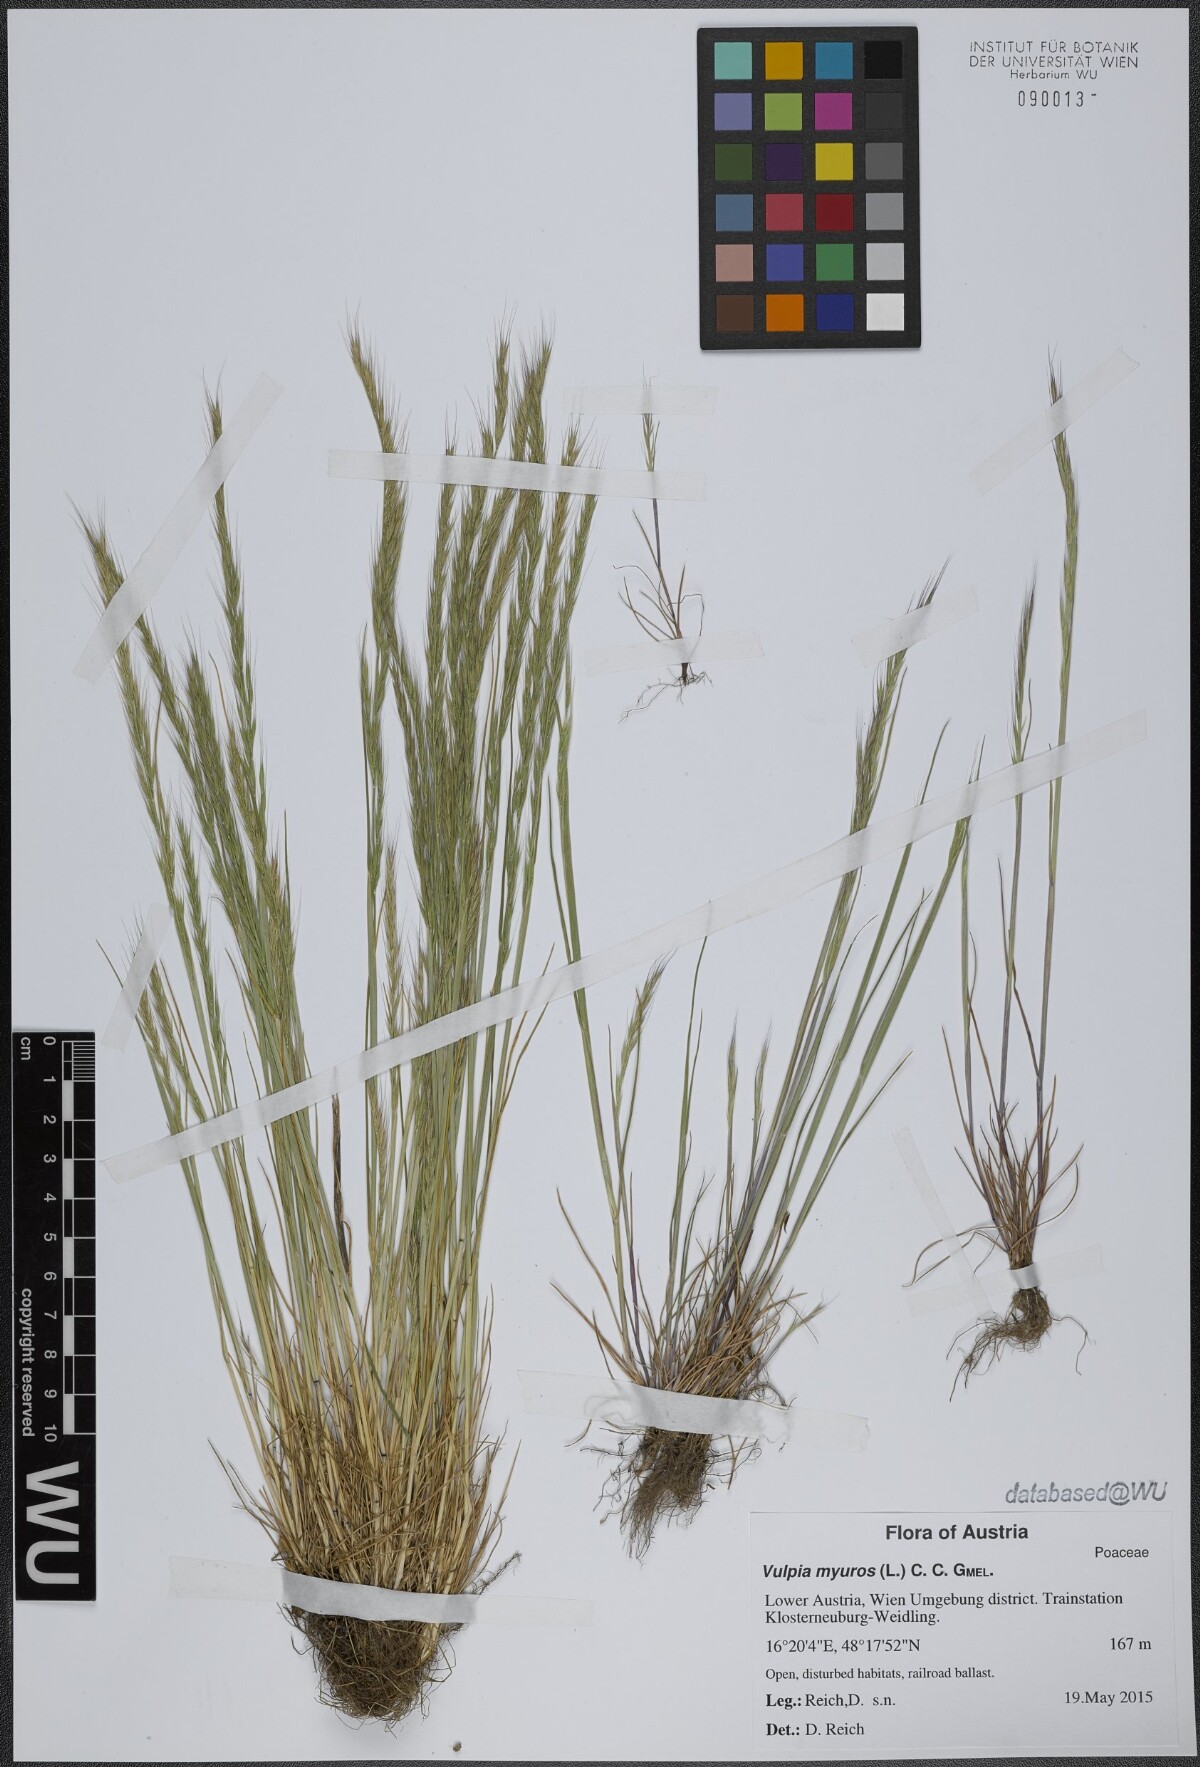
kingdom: Plantae
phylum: Tracheophyta
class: Liliopsida
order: Poales
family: Poaceae
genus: Festuca
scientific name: Festuca myuros
